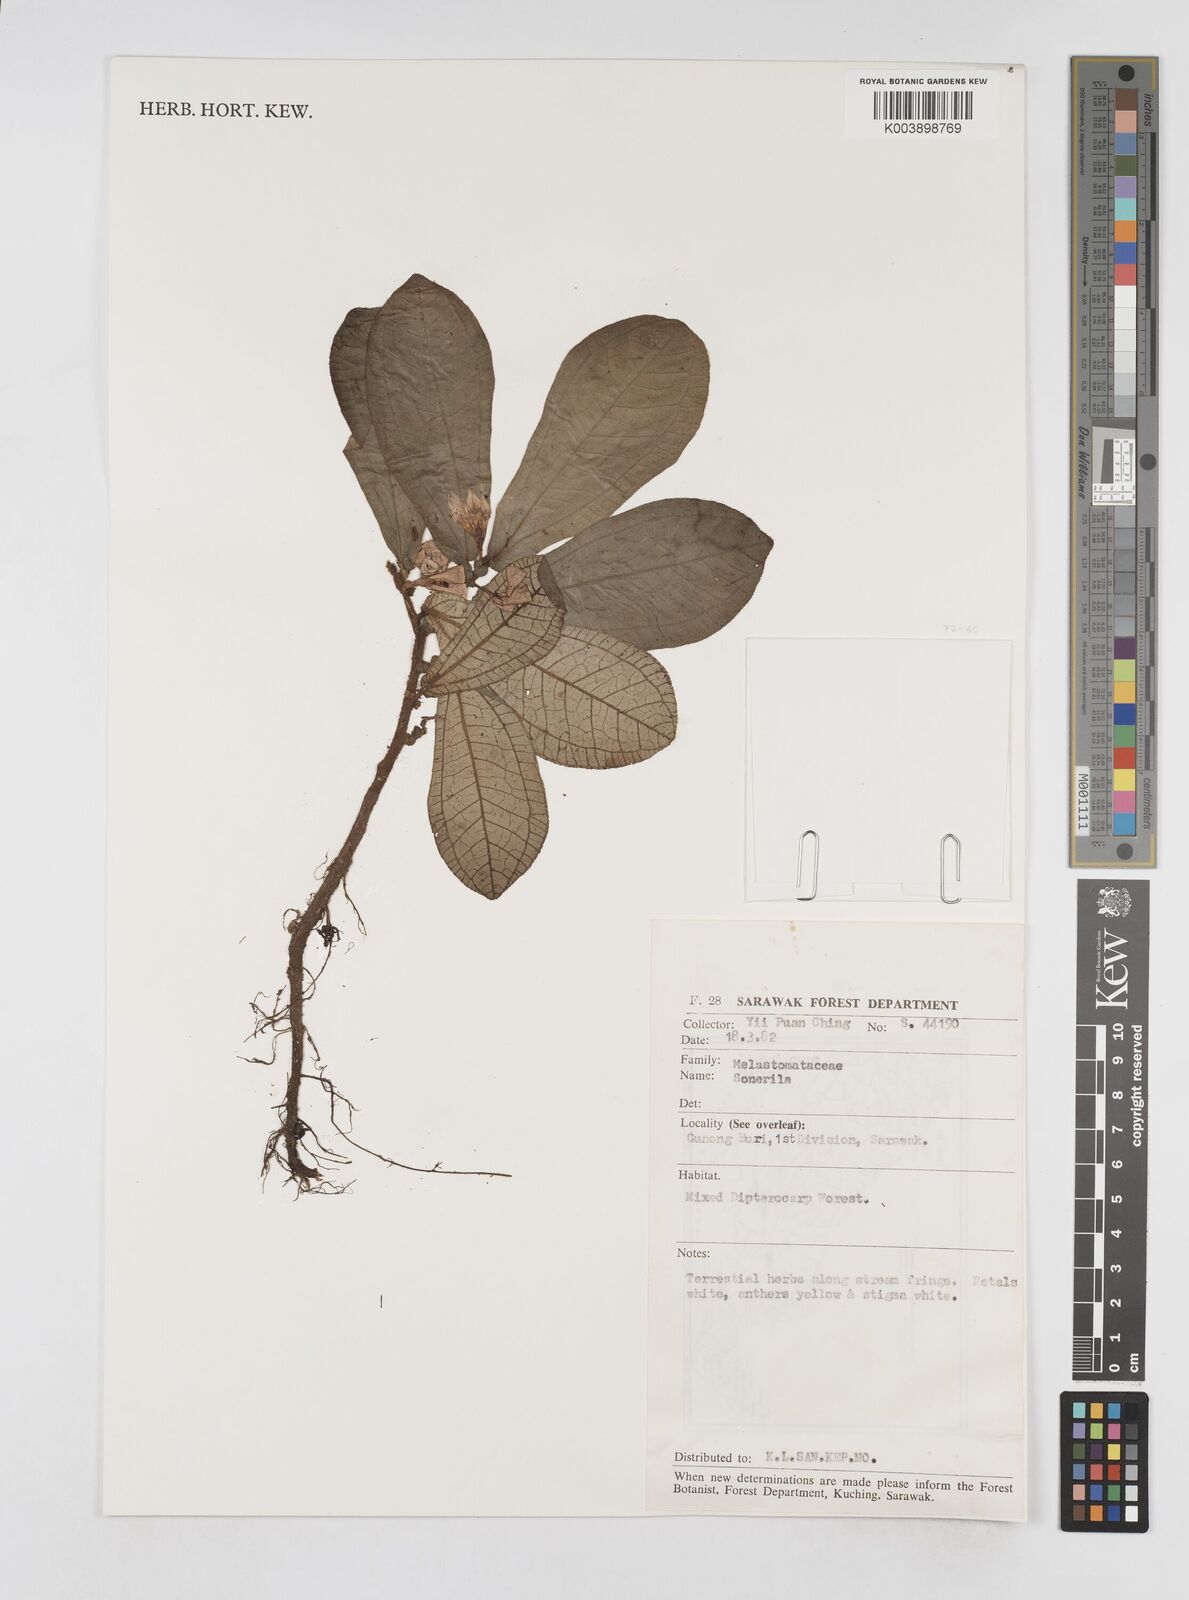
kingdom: Plantae
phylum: Tracheophyta
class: Magnoliopsida
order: Myrtales
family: Melastomataceae
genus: Sonerila
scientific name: Sonerila
